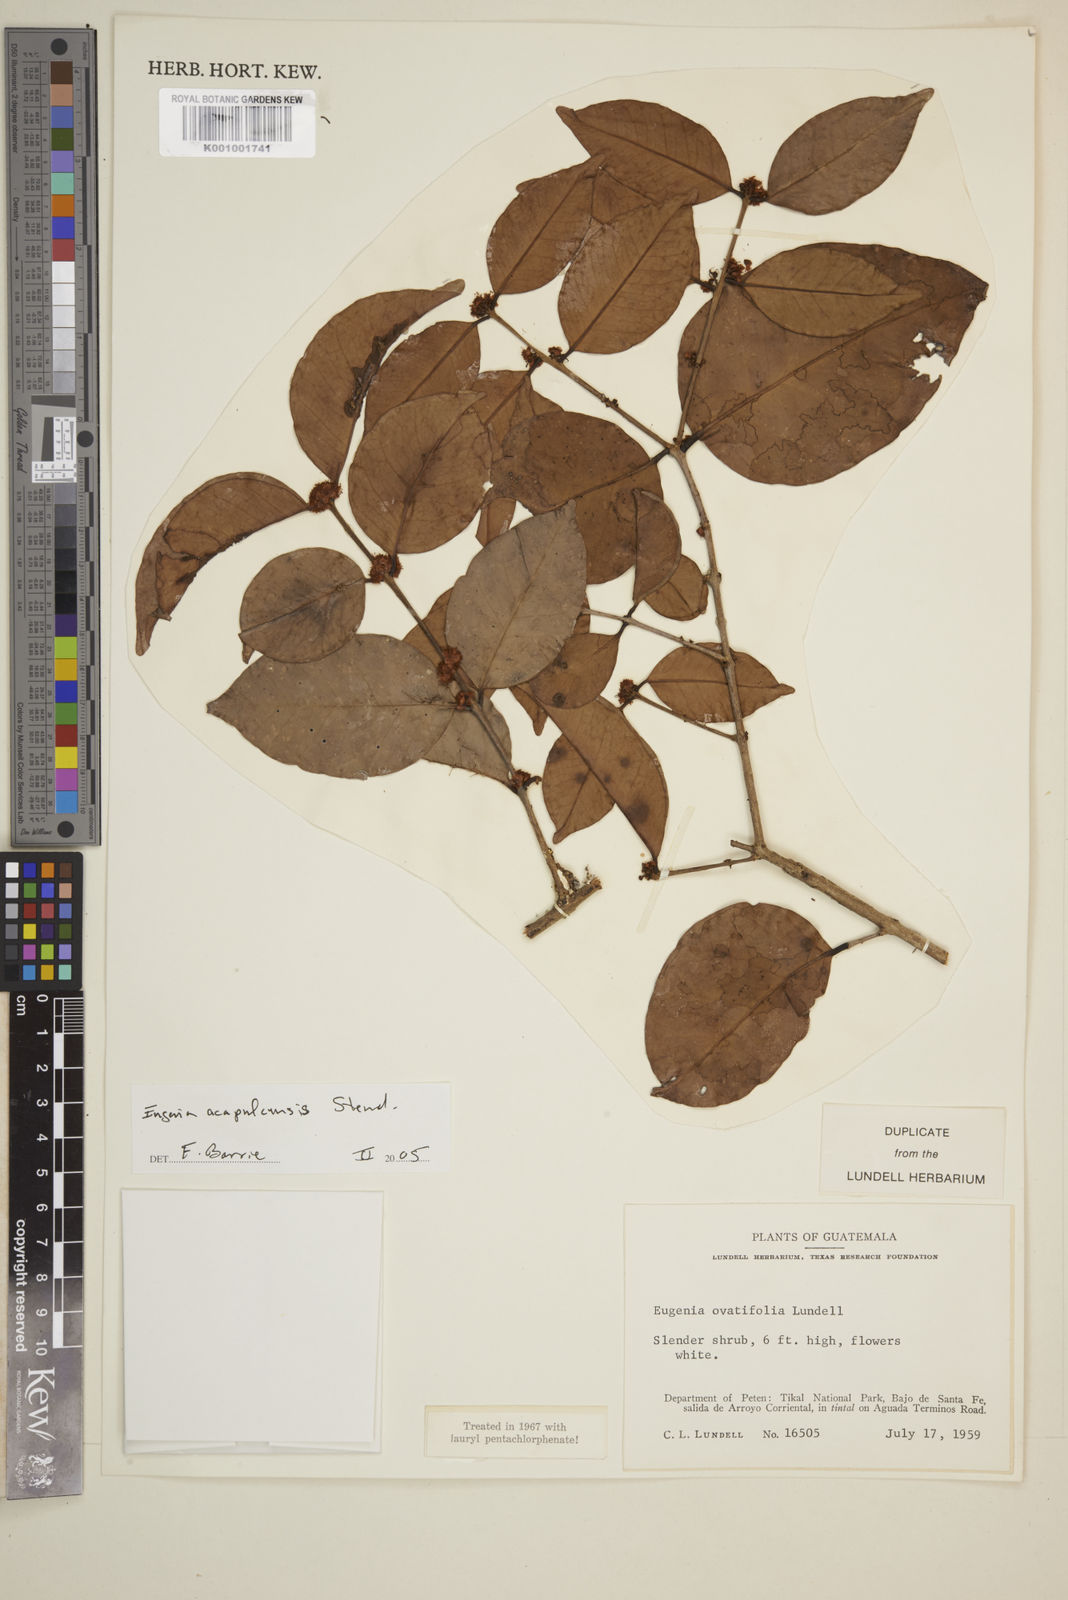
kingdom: Plantae
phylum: Tracheophyta
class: Magnoliopsida
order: Myrtales
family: Myrtaceae
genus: Eugenia
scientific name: Eugenia acapulcensis
